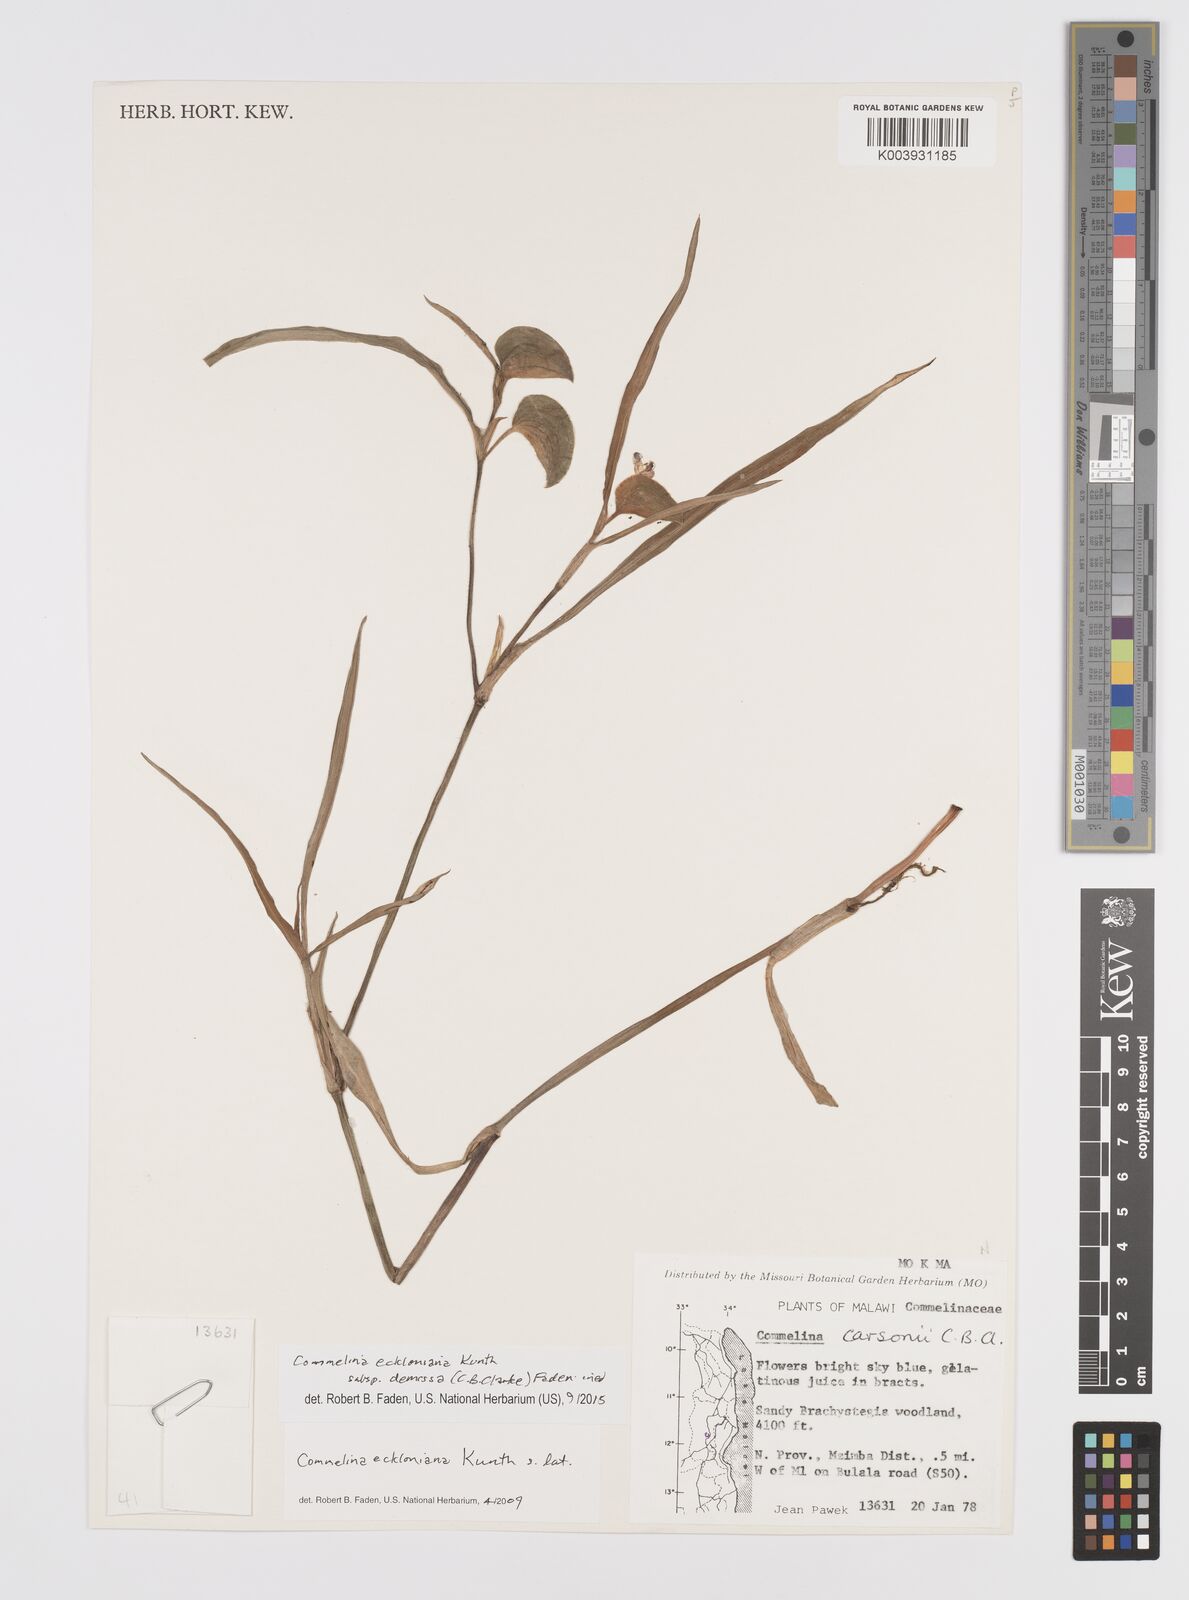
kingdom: Plantae
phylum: Tracheophyta
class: Liliopsida
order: Commelinales
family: Commelinaceae
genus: Commelina
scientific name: Commelina eckloniana
